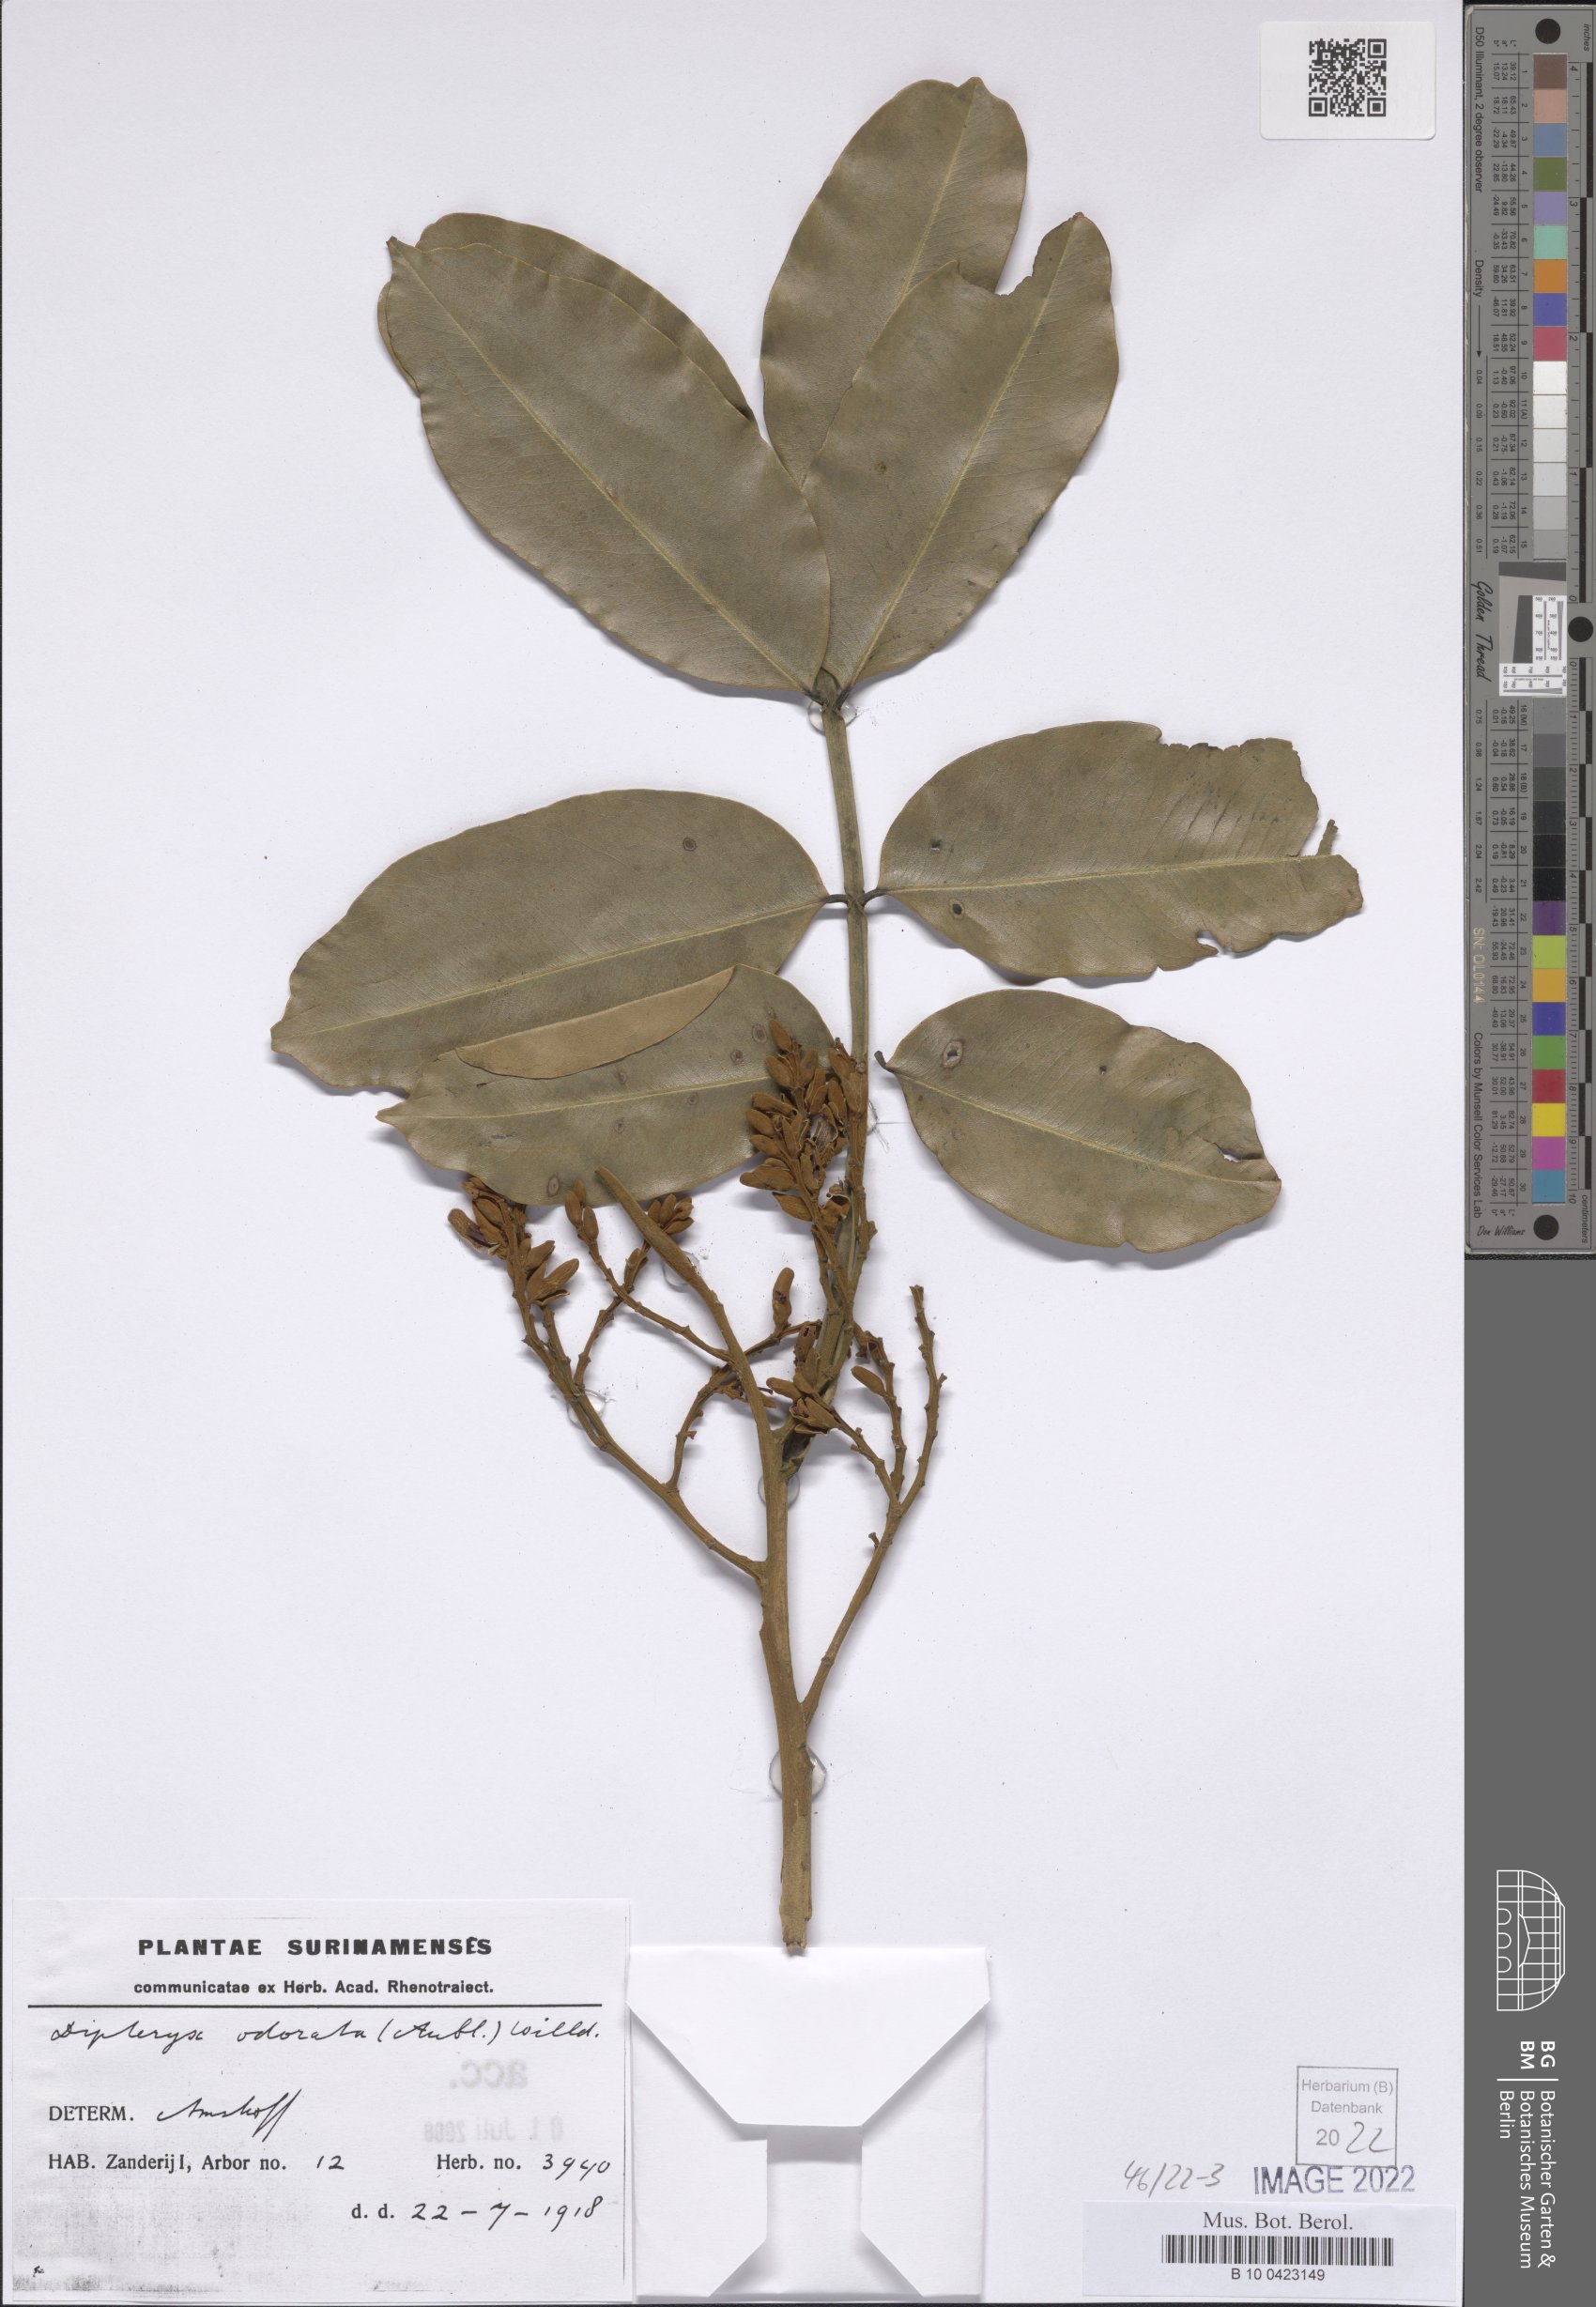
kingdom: Plantae
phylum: Tracheophyta
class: Magnoliopsida
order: Fabales
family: Fabaceae
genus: Dipteryx
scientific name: Dipteryx odorata
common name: Tonka
